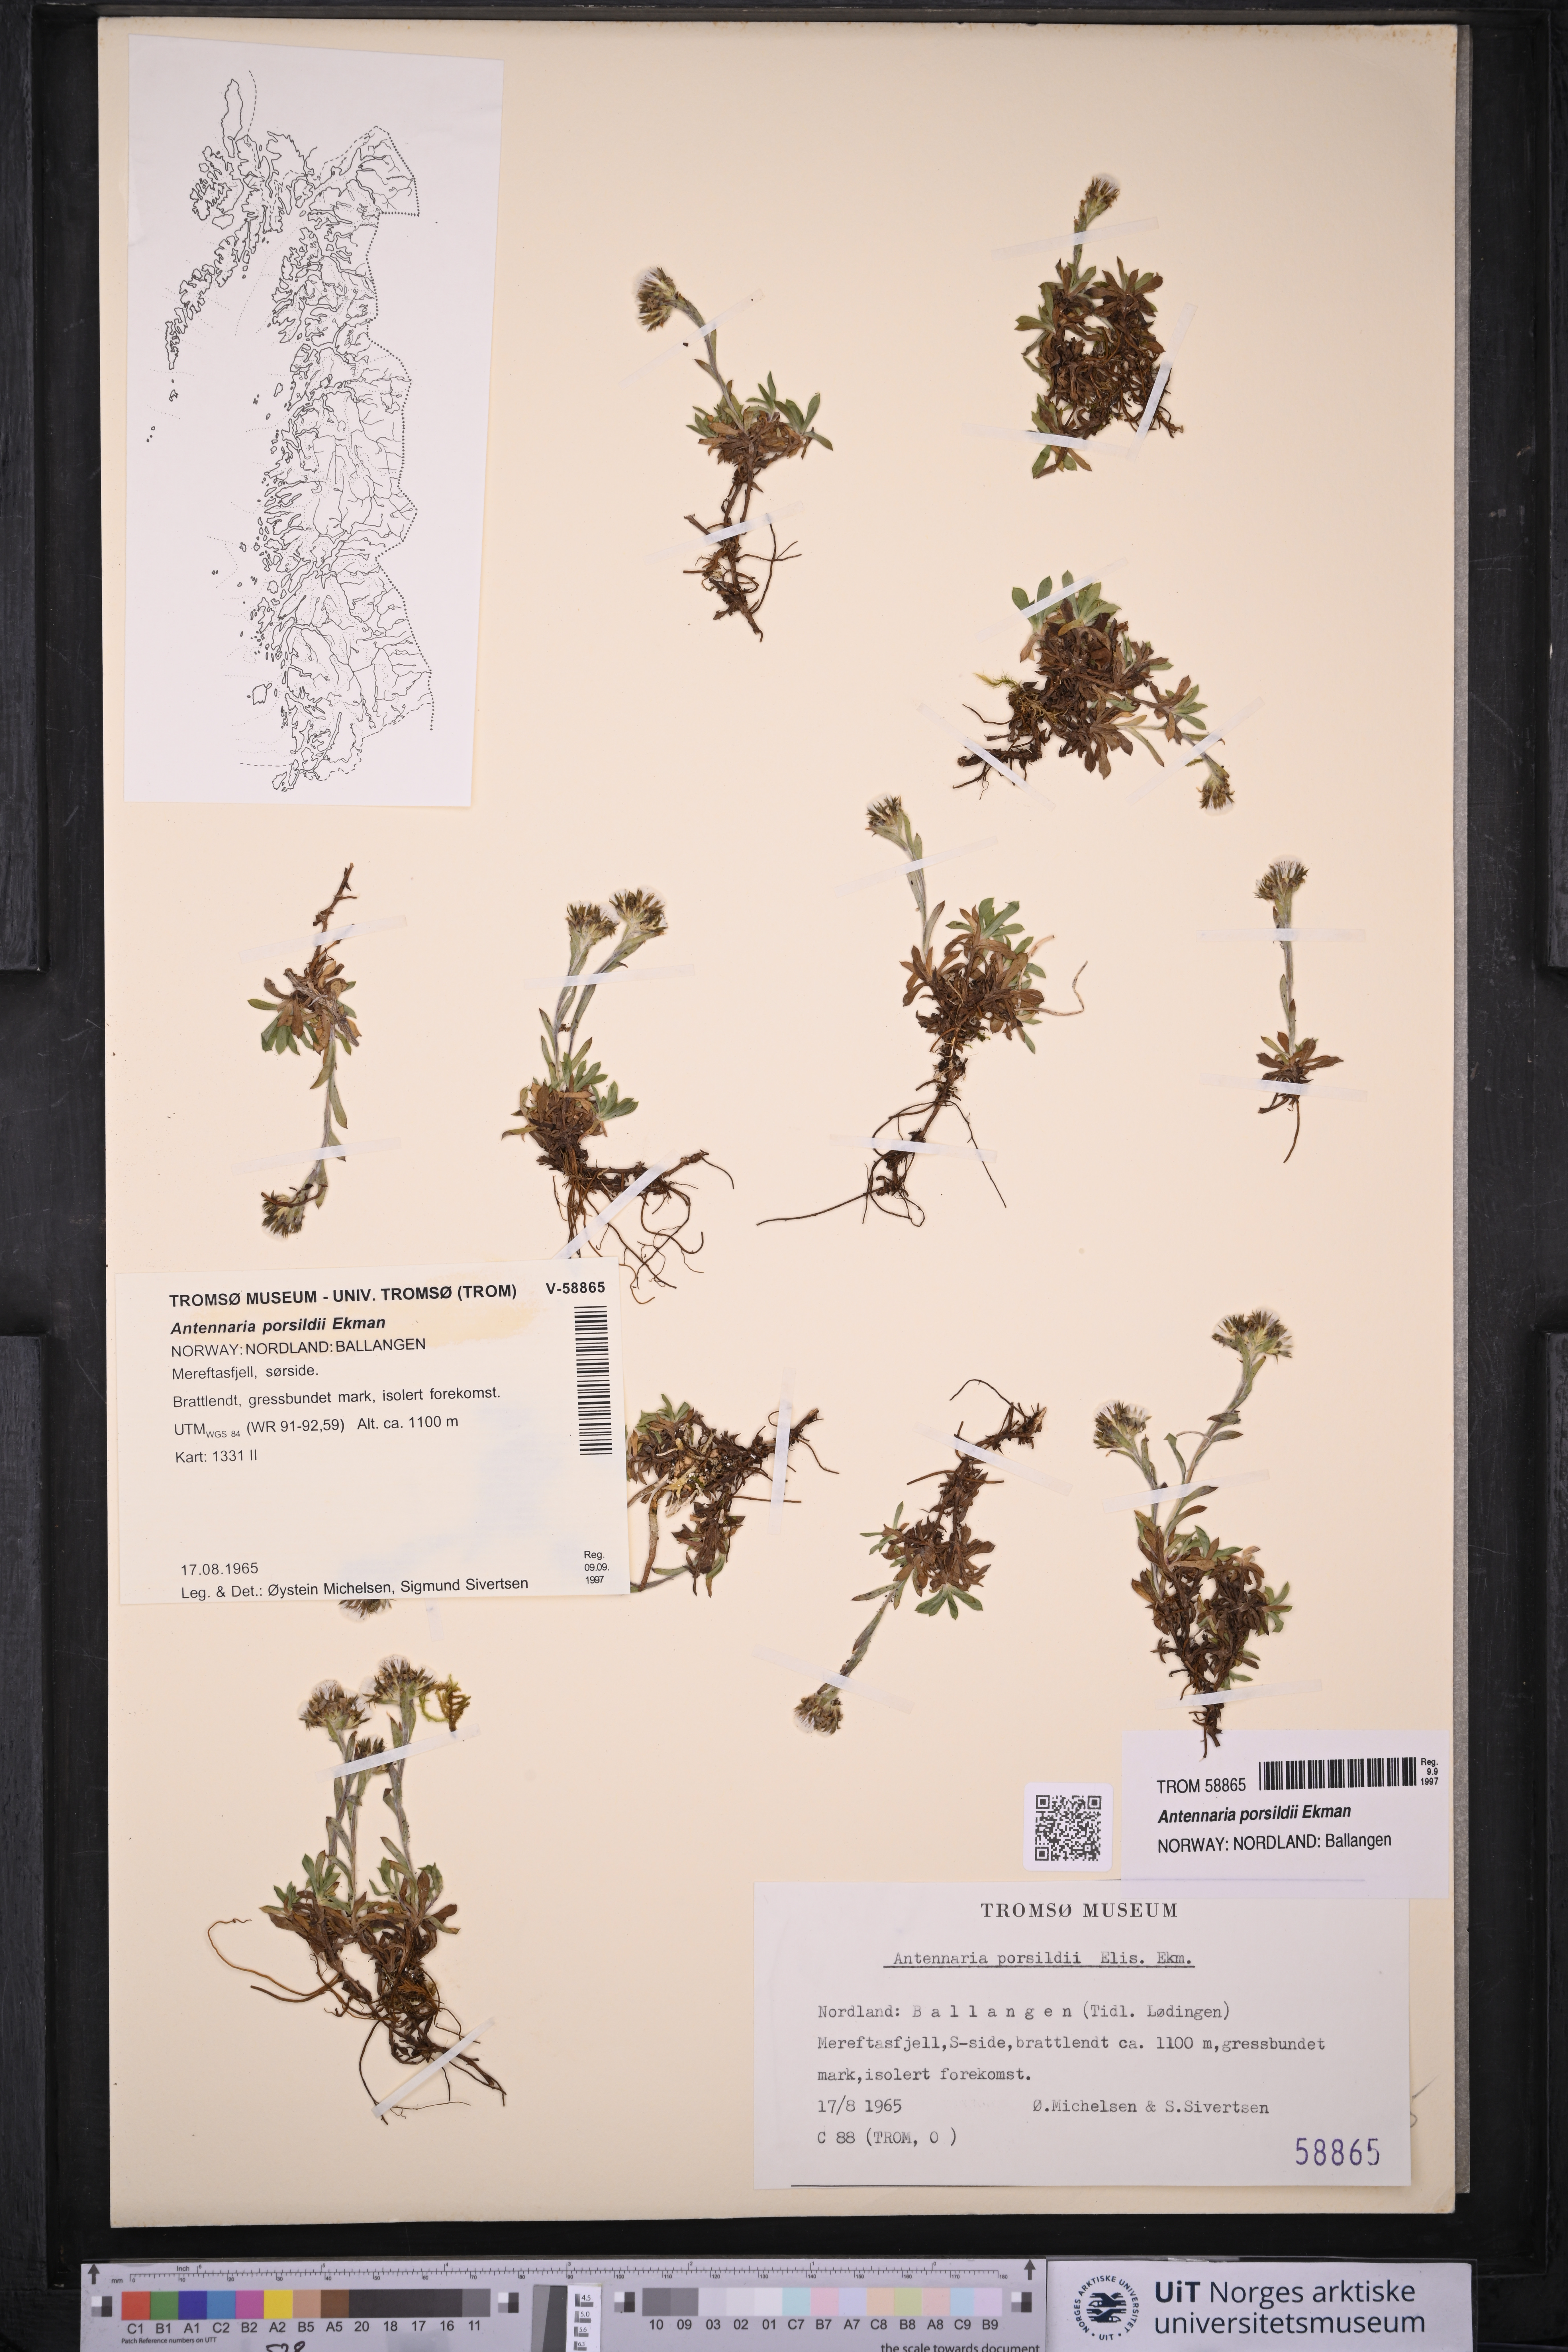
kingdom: Plantae
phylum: Tracheophyta
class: Magnoliopsida
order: Asterales
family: Asteraceae
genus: Antennaria
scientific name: Antennaria porsildii
